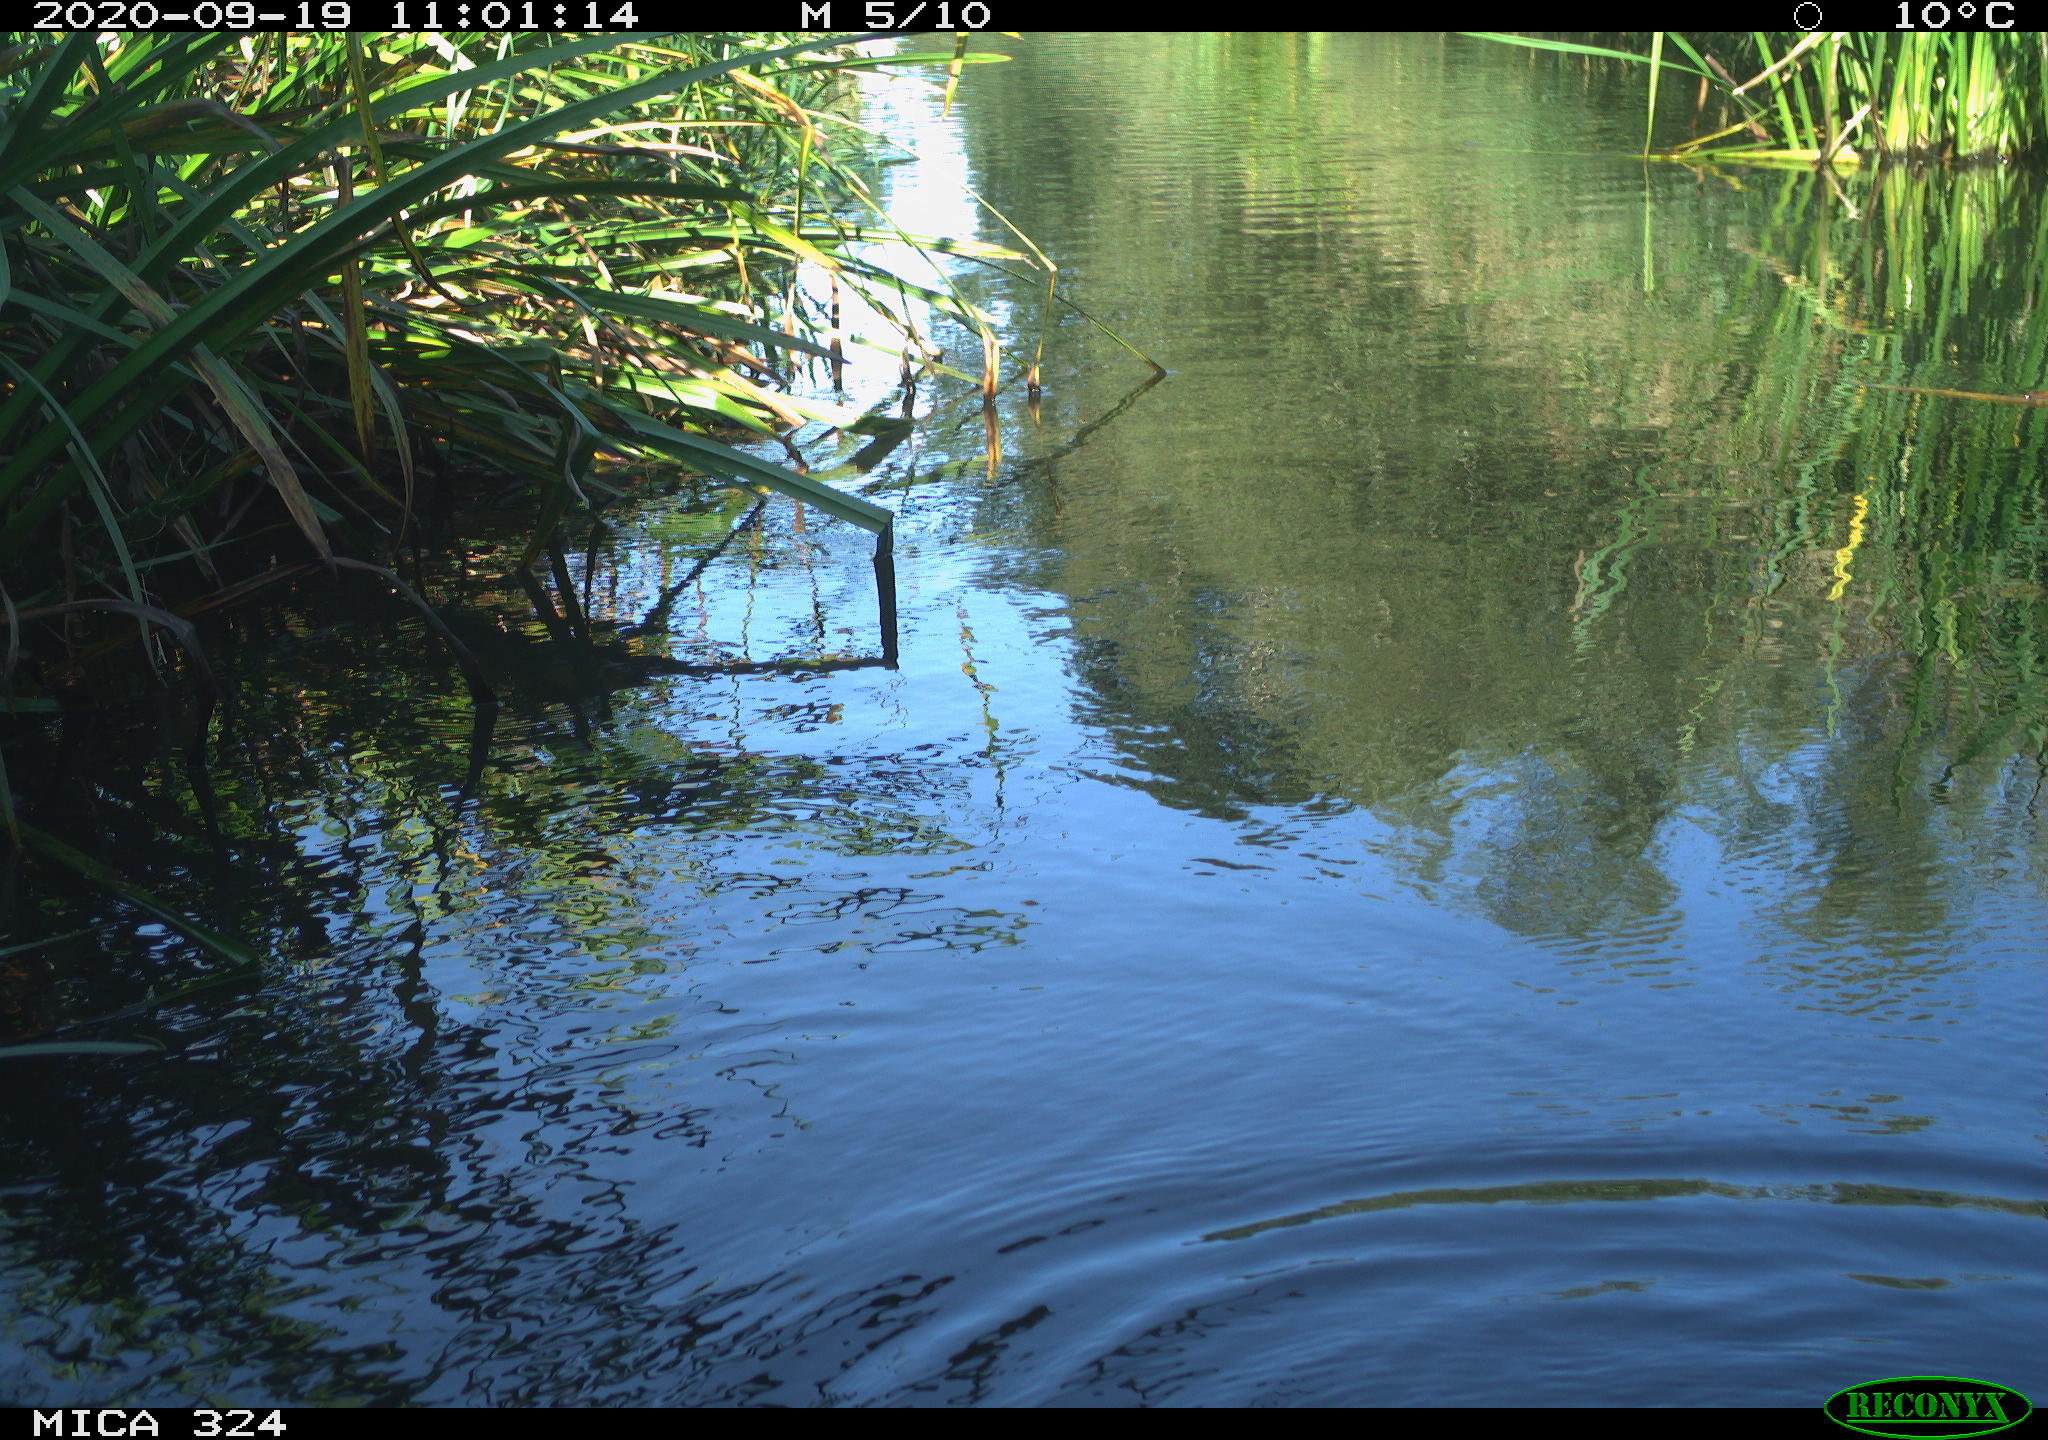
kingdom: Animalia
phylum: Chordata
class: Aves
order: Gruiformes
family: Rallidae
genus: Gallinula
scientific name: Gallinula chloropus
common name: Common moorhen
